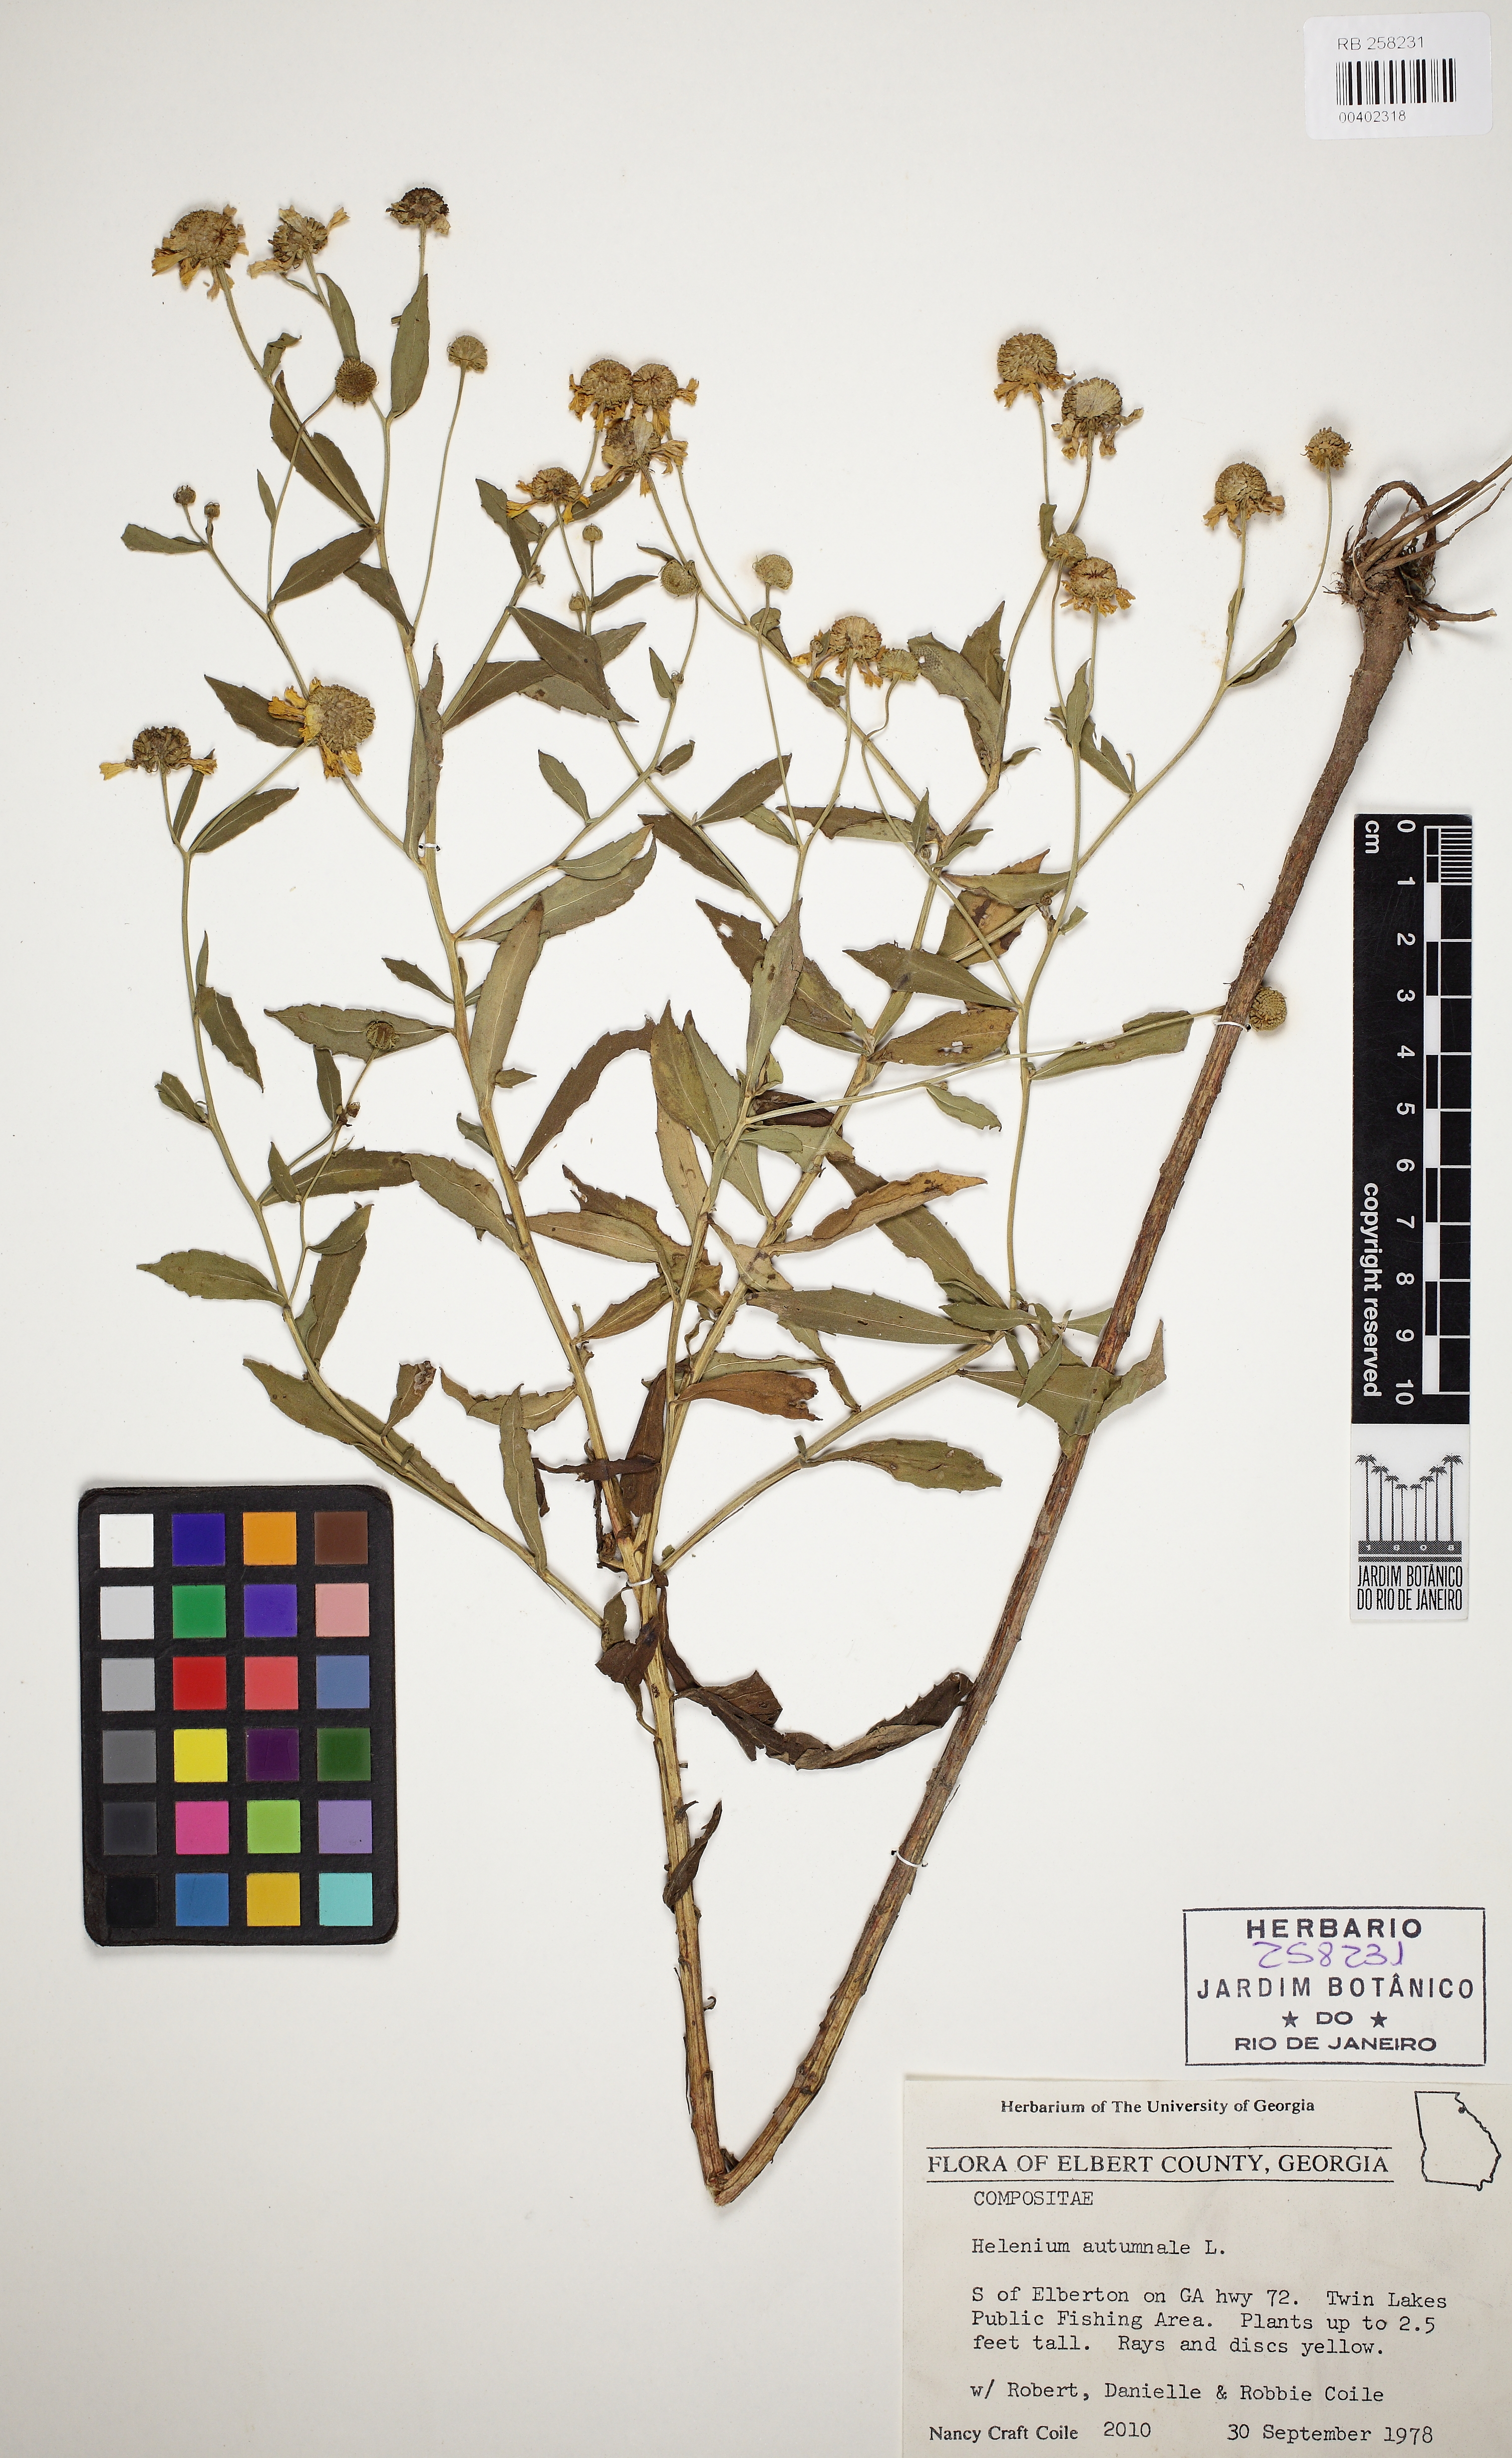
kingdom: Plantae
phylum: Tracheophyta
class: Magnoliopsida
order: Asterales
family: Asteraceae
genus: Helenium
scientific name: Helenium autumnale
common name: Sneezeweed
